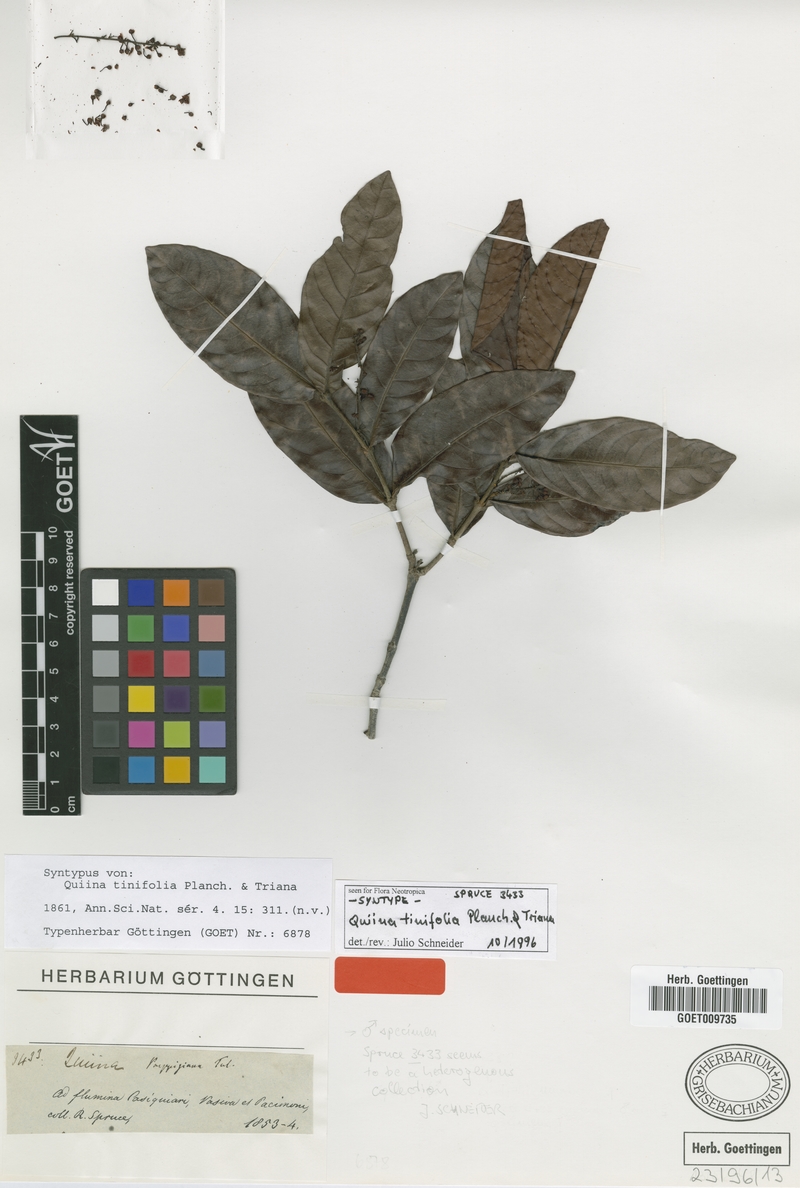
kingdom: Plantae
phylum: Tracheophyta
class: Magnoliopsida
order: Malpighiales
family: Quiinaceae
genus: Quiina
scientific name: Quiina tinifolia
